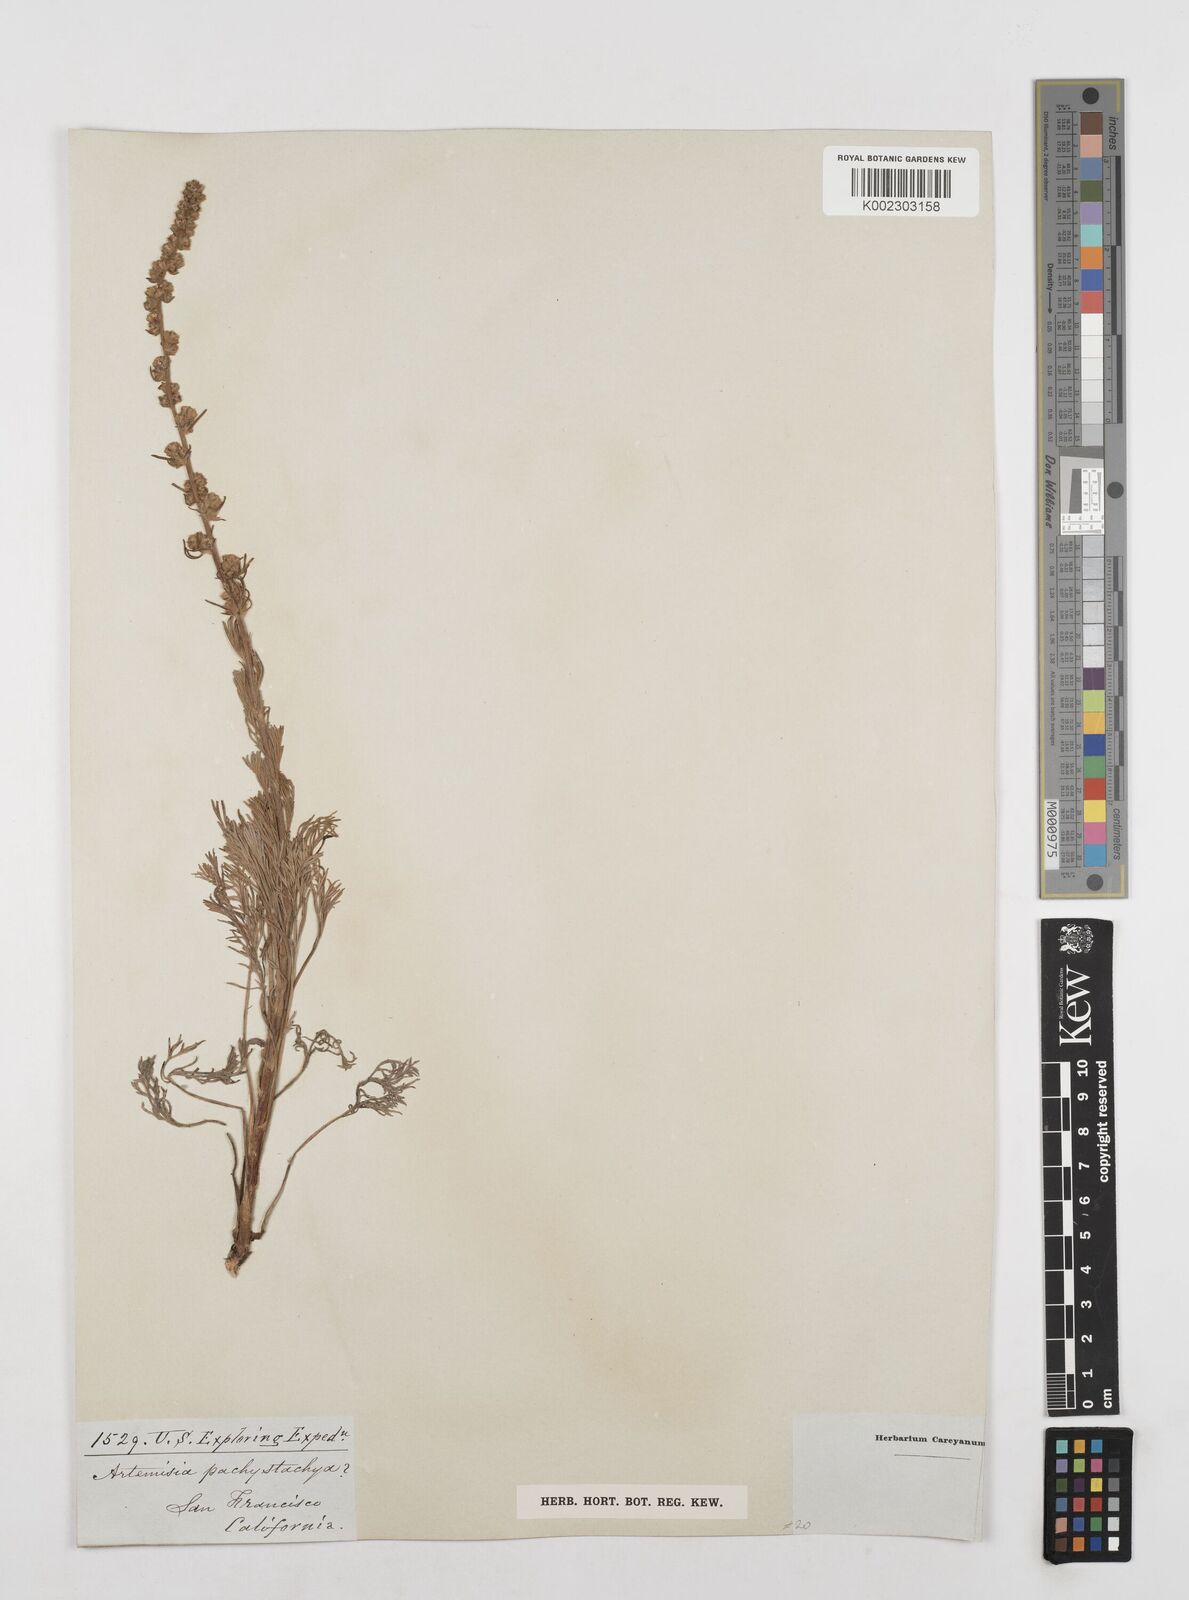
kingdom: Plantae
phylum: Tracheophyta
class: Magnoliopsida
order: Asterales
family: Asteraceae
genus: Artemisia
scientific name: Artemisia pycnocephala
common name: Coastal sagewort
